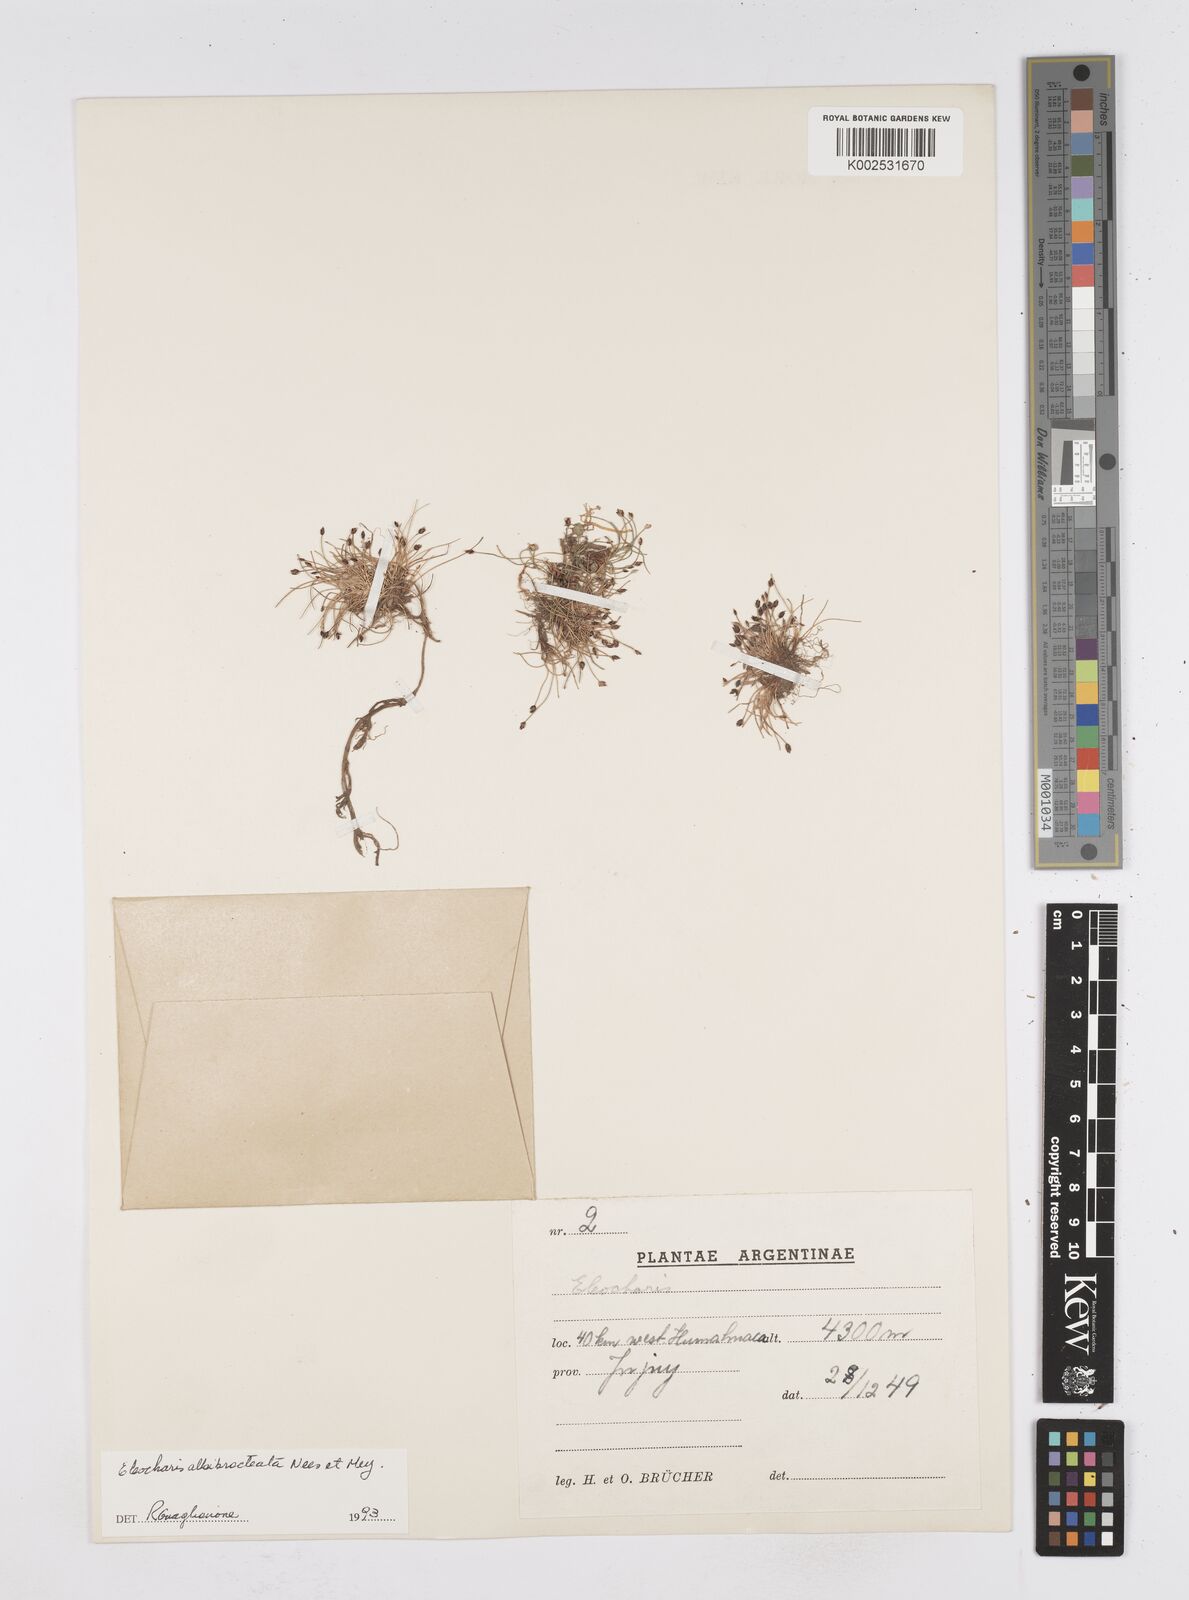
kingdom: Plantae
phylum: Tracheophyta
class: Liliopsida
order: Poales
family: Cyperaceae
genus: Eleocharis
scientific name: Eleocharis
